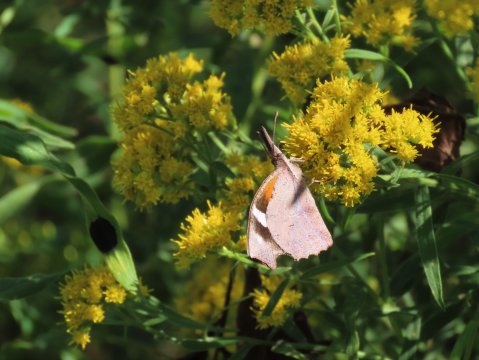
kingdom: Animalia
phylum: Arthropoda
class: Insecta
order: Lepidoptera
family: Nymphalidae
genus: Libytheana
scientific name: Libytheana carinenta
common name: American Snout
